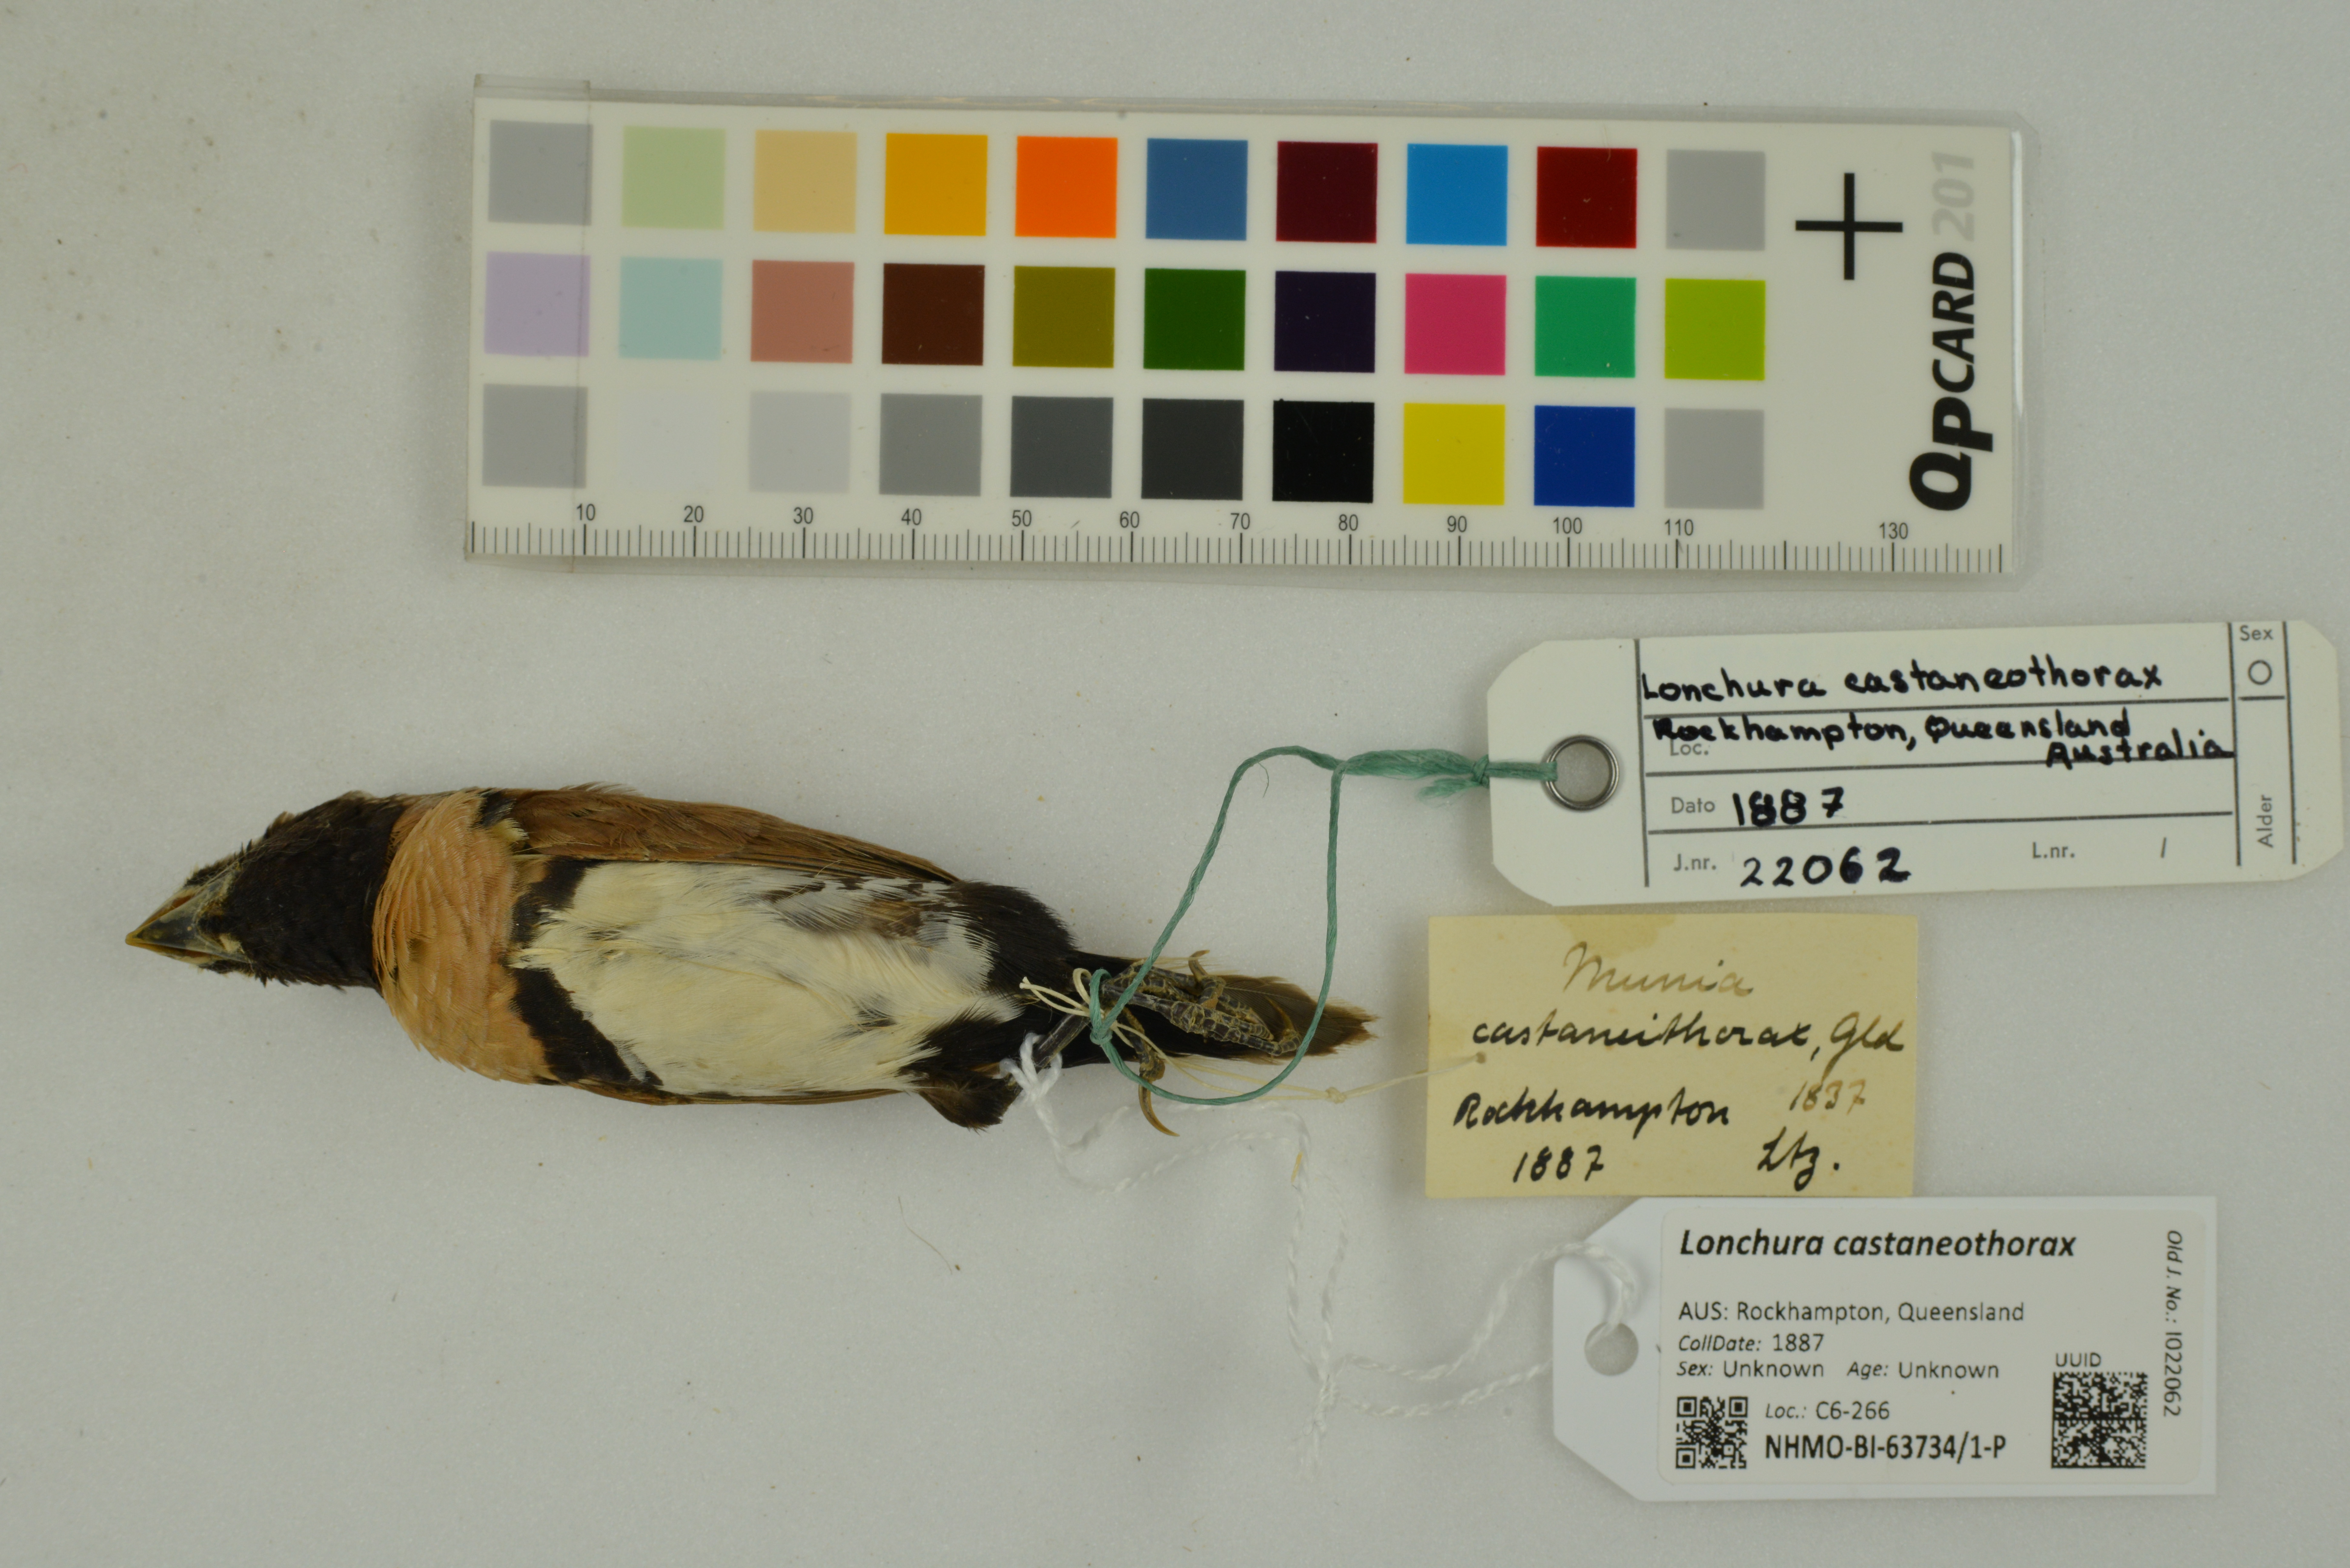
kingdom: Animalia
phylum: Chordata
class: Aves
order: Passeriformes
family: Estrildidae
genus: Lonchura
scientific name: Lonchura castaneothorax
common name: Chestnut-breasted mannikin
